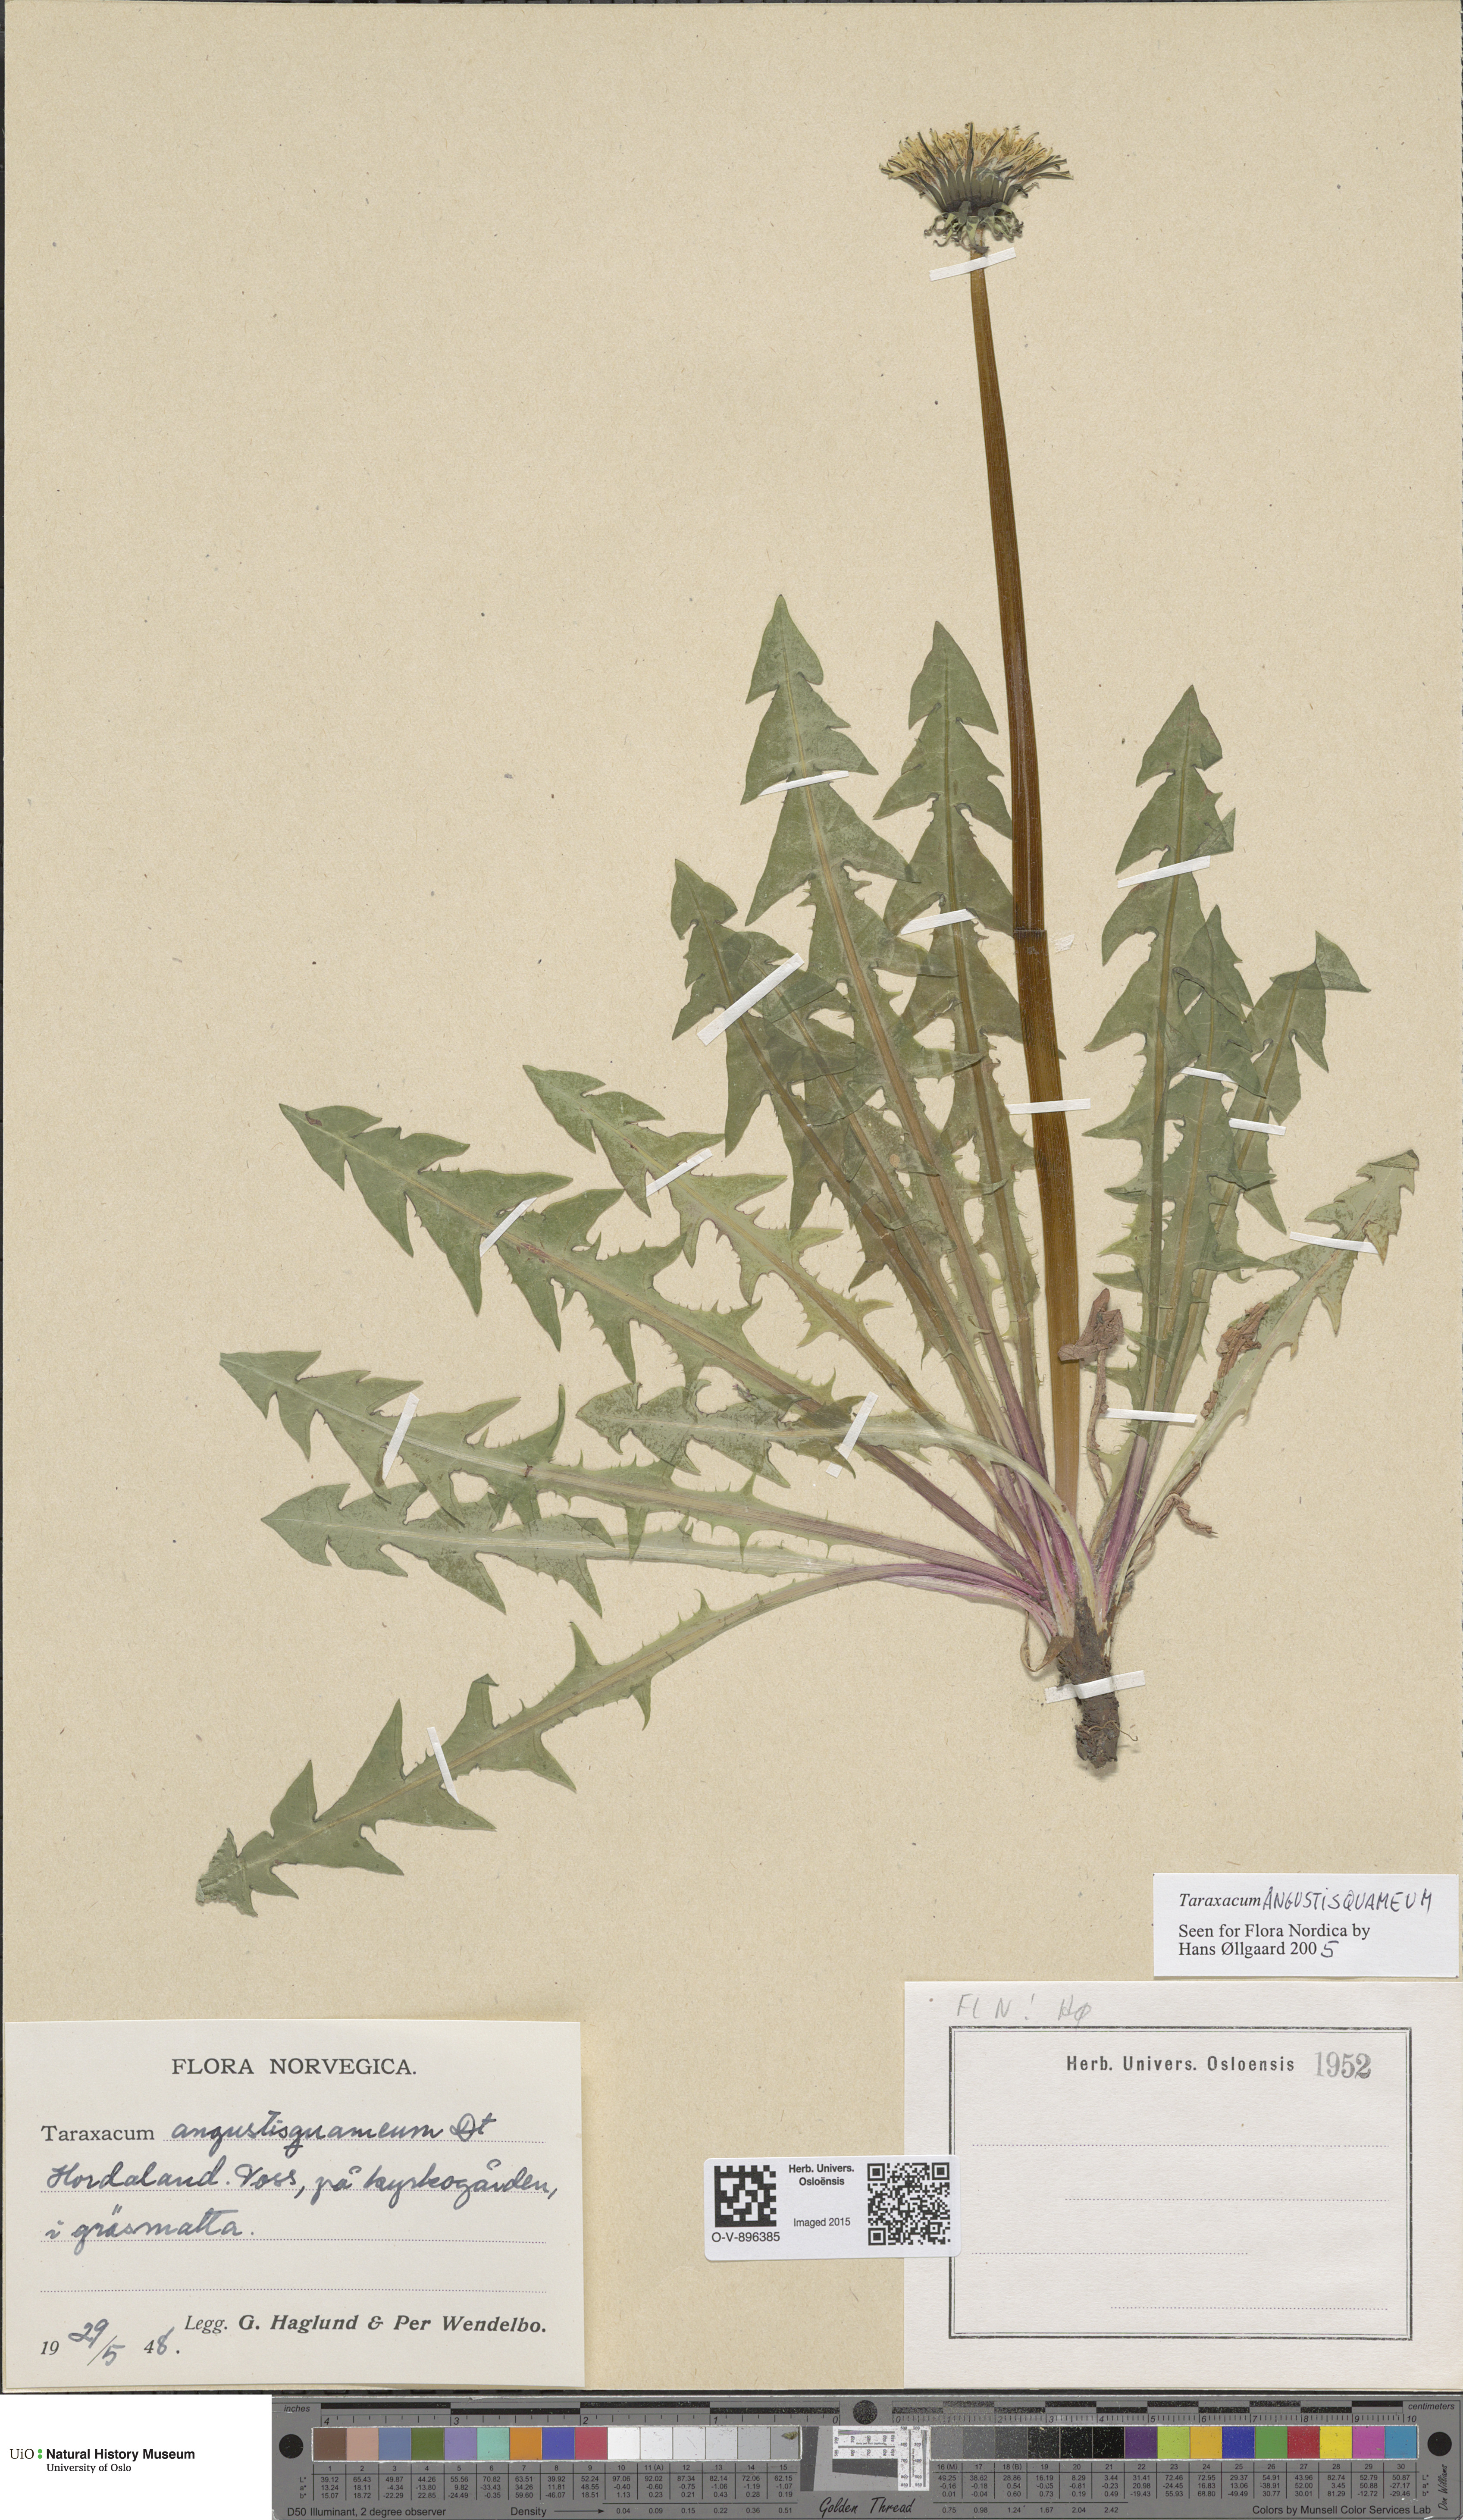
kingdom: Plantae
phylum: Tracheophyta
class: Magnoliopsida
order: Asterales
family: Asteraceae
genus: Taraxacum
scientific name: Taraxacum angustisquameum
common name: Multilobed dandelion
